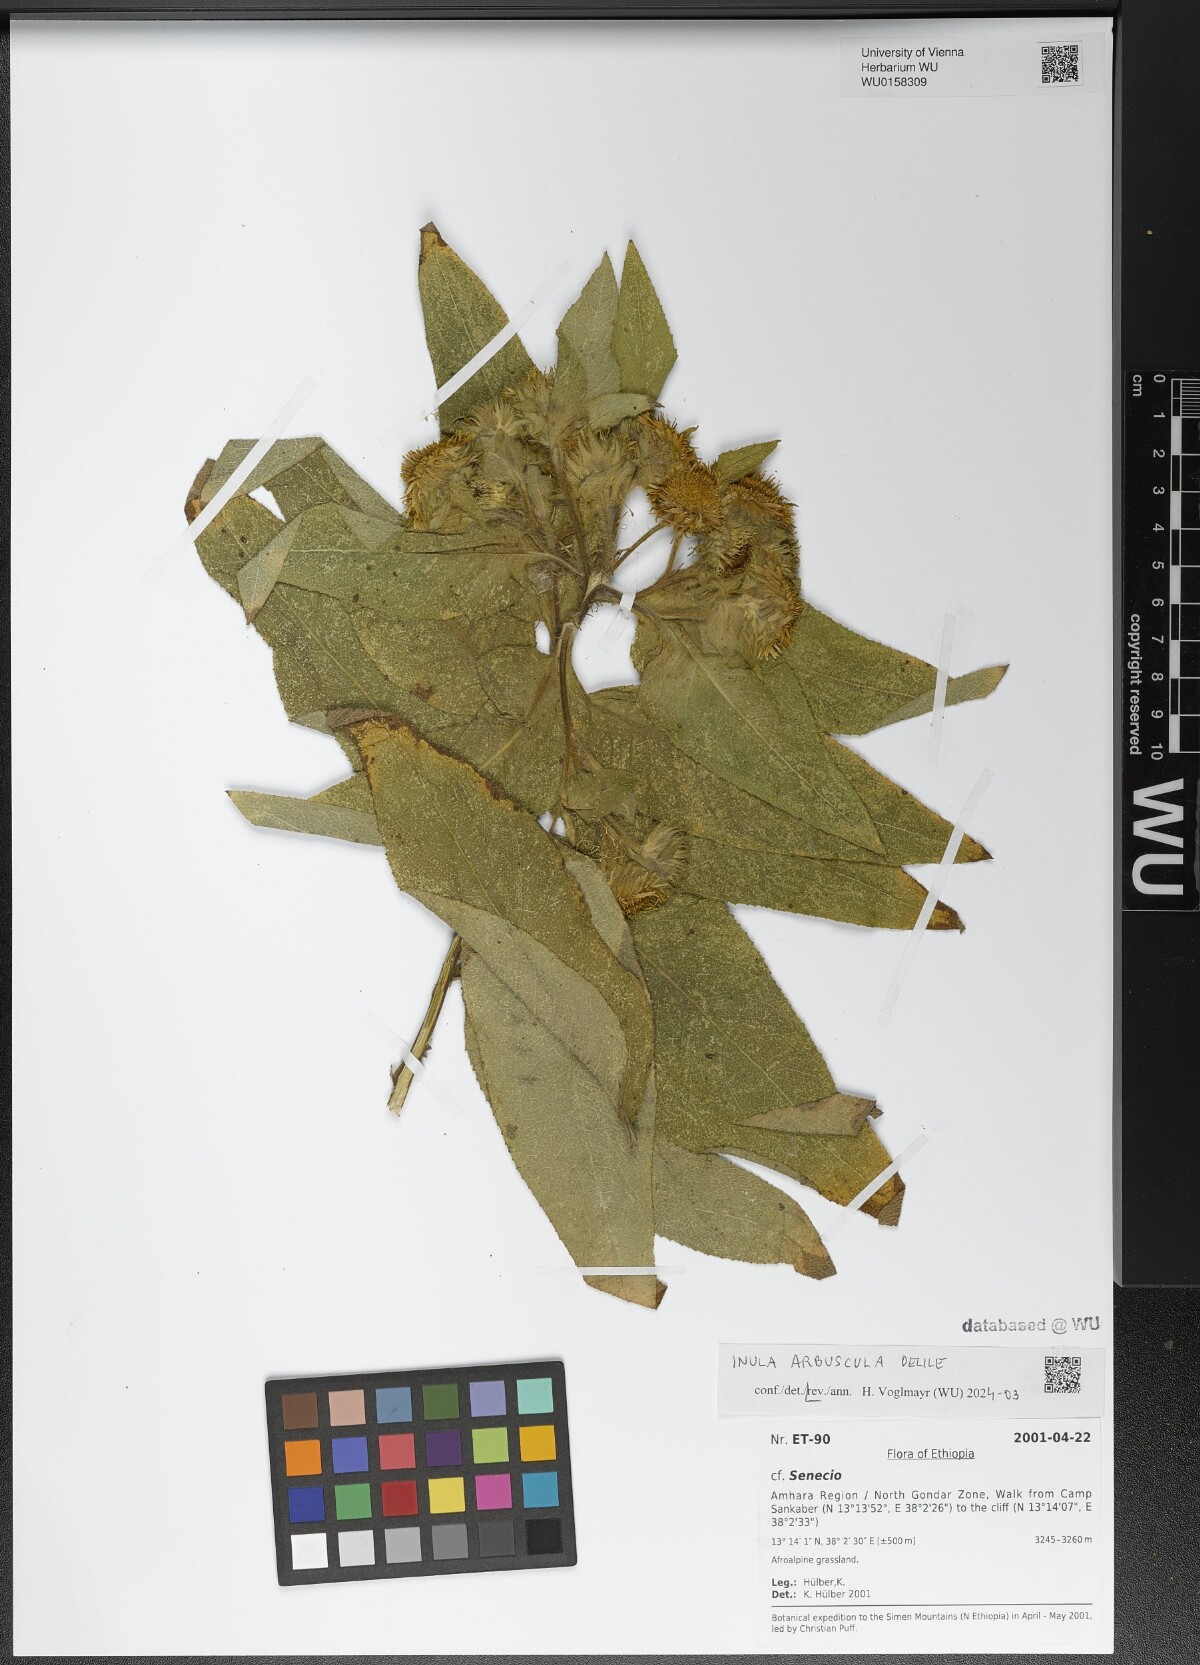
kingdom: Plantae
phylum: Tracheophyta
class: Magnoliopsida
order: Asterales
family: Asteraceae
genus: Inula
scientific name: Inula arbuscula
